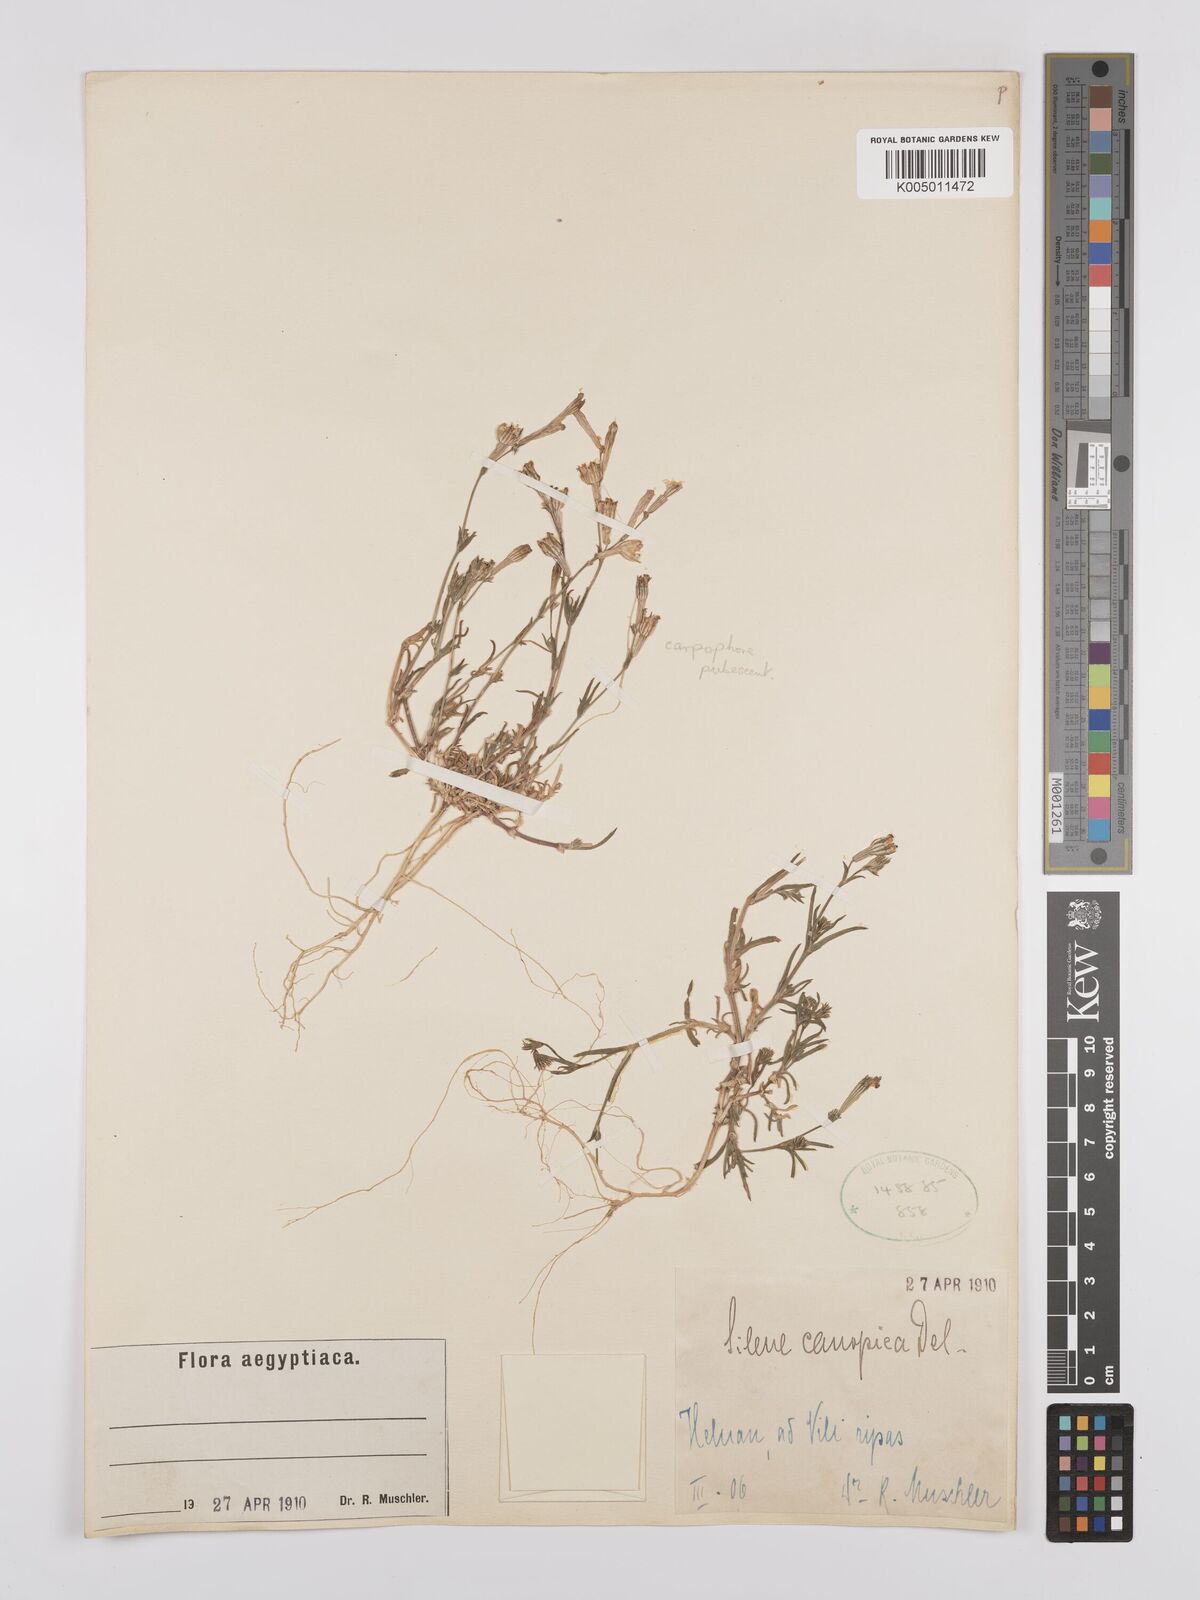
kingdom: Plantae
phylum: Tracheophyta
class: Magnoliopsida
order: Caryophyllales
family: Caryophyllaceae
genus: Silene
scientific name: Silene biappendiculata
